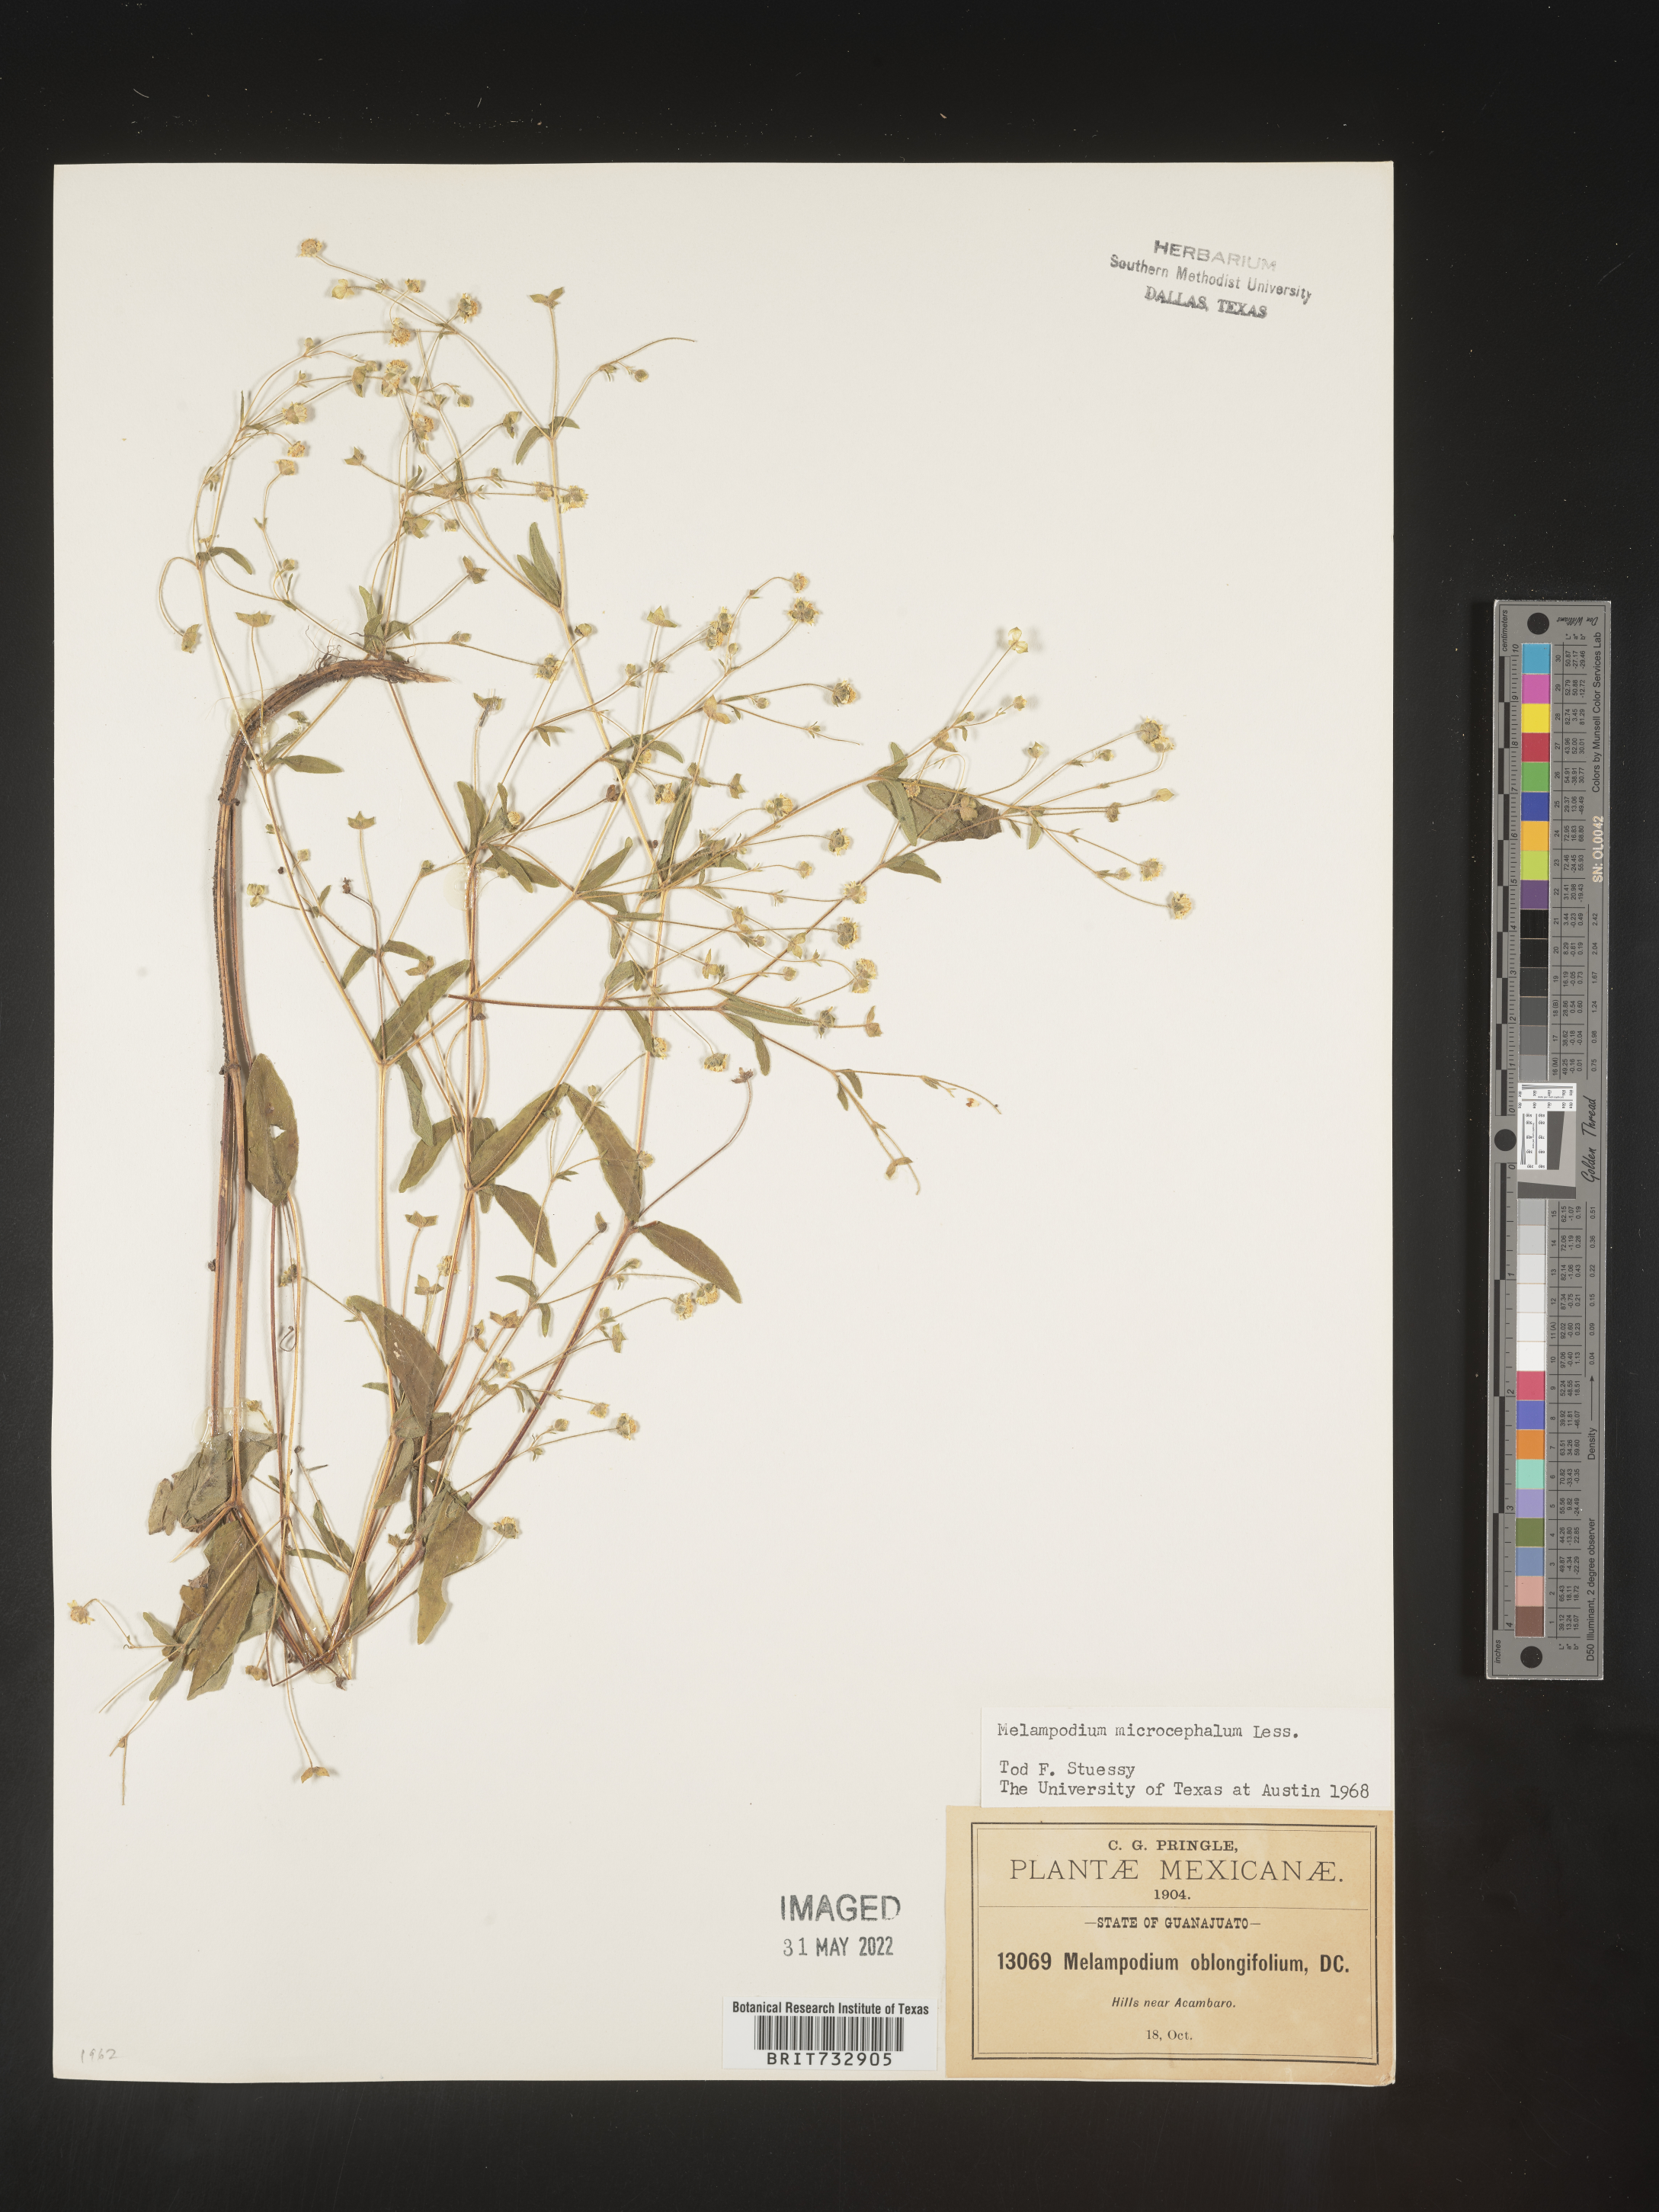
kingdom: Plantae
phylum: Tracheophyta
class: Magnoliopsida
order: Asterales
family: Asteraceae
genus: Melampodium
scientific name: Melampodium
